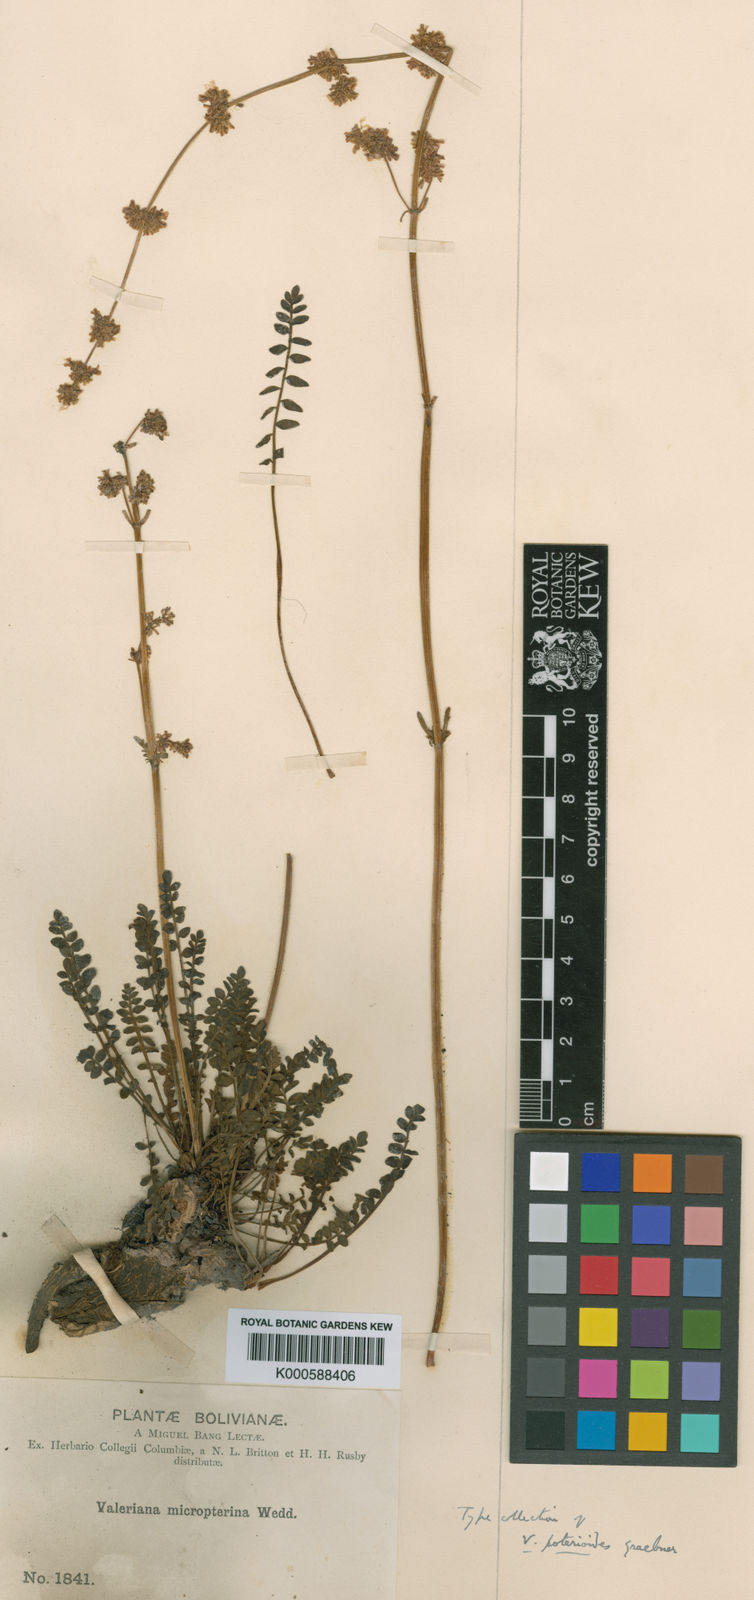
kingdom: Plantae
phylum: Tracheophyta
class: Magnoliopsida
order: Dipsacales
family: Caprifoliaceae
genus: Valeriana
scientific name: Valeriana micropterina
